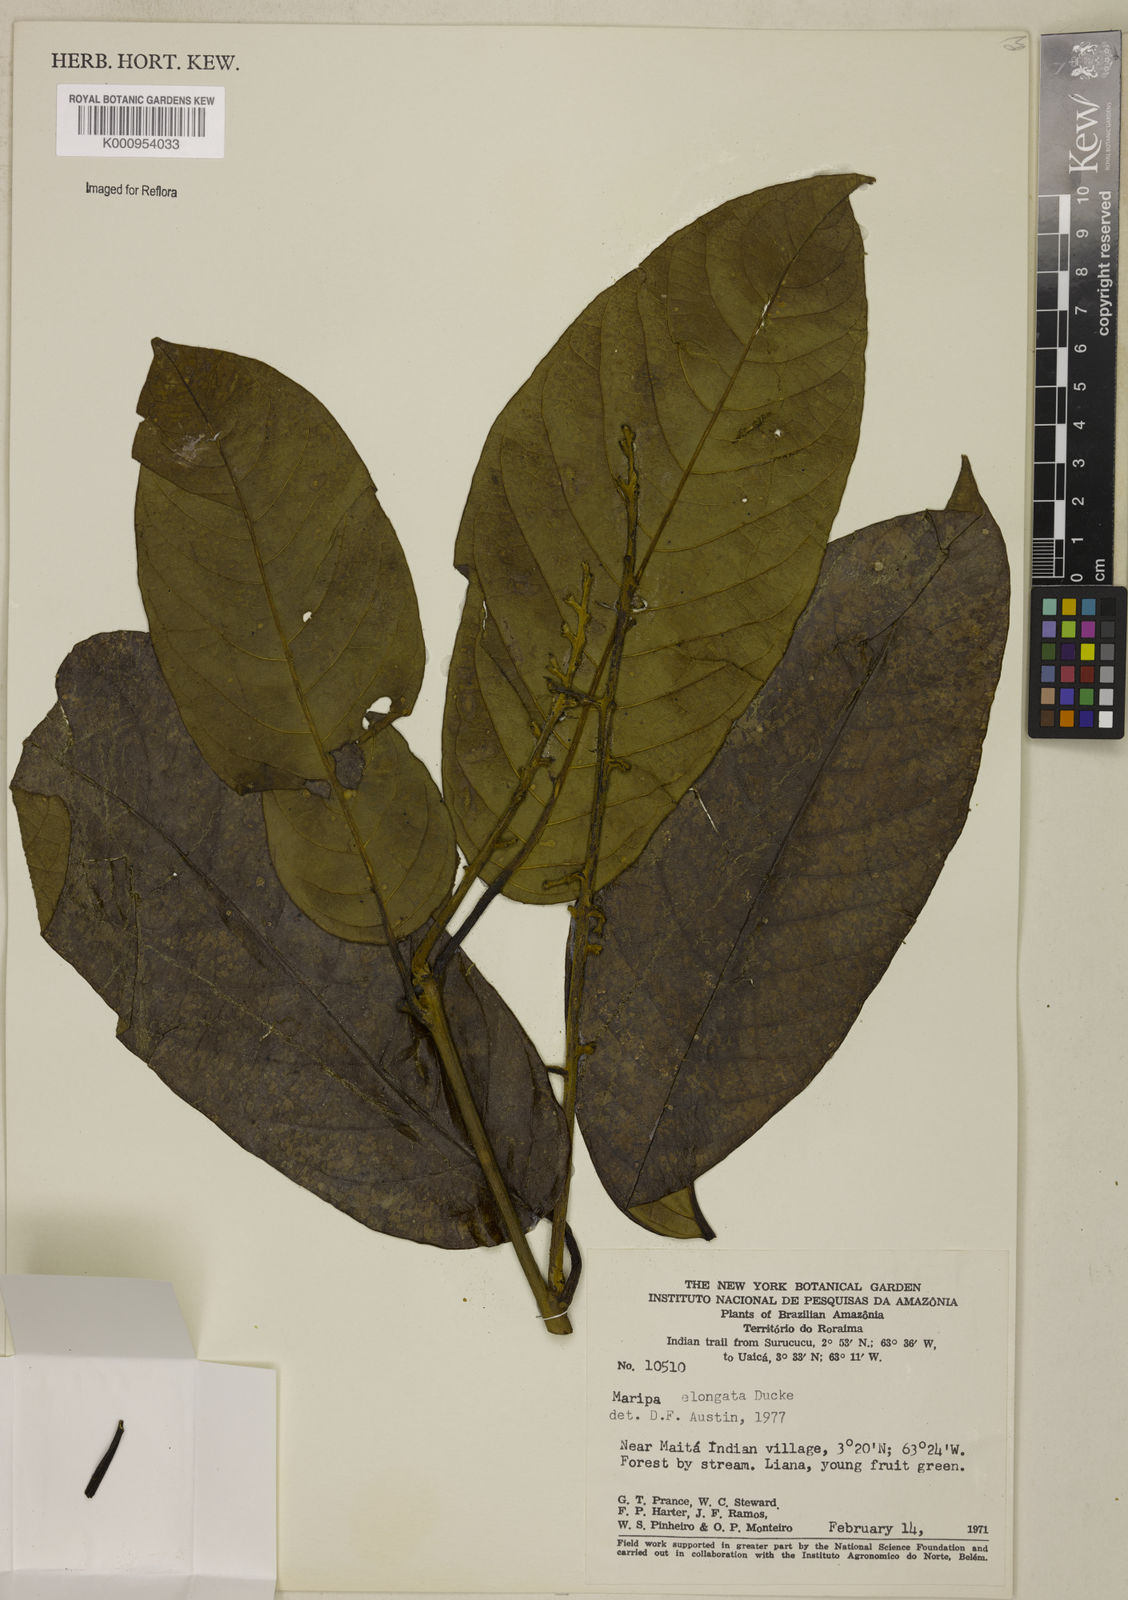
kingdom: Plantae
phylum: Tracheophyta
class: Magnoliopsida
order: Solanales
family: Convolvulaceae
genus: Maripa
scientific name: Maripa elongata
